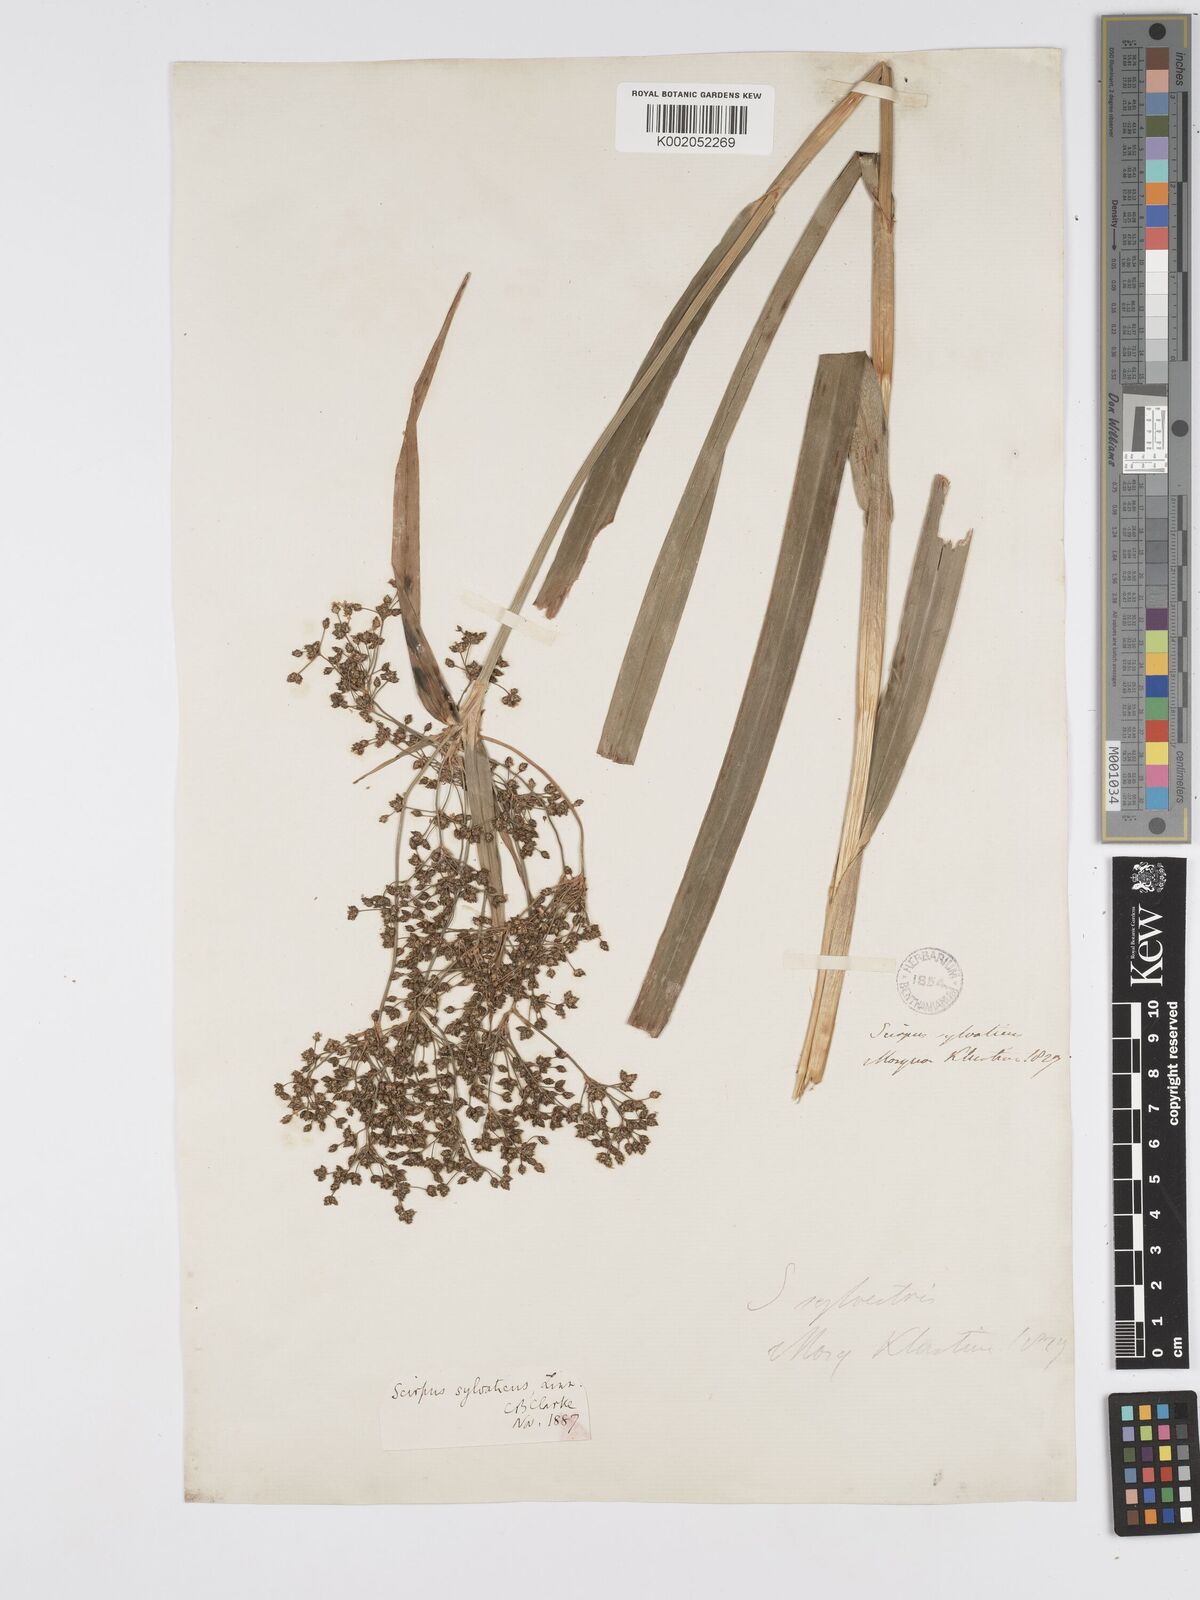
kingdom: Plantae
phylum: Tracheophyta
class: Liliopsida
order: Poales
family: Cyperaceae
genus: Scirpus
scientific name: Scirpus sylvaticus
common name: Wood club-rush
